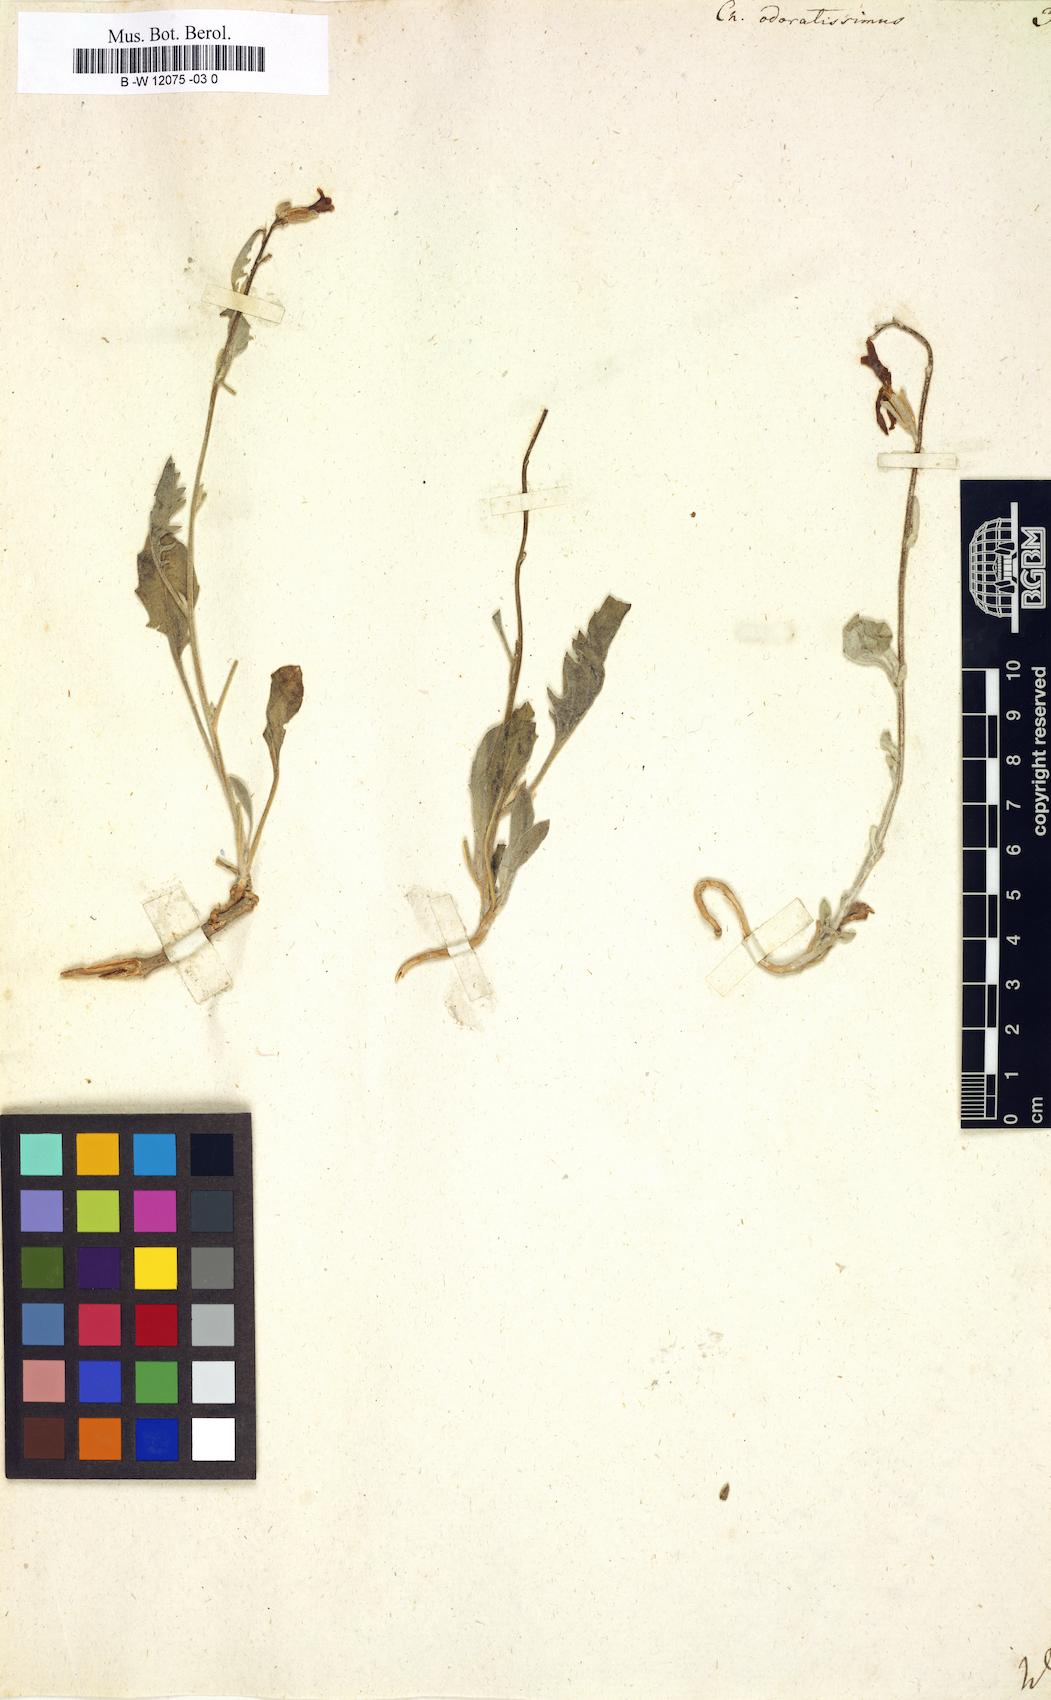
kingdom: Plantae
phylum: Tracheophyta
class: Magnoliopsida
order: Brassicales
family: Brassicaceae
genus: Matthiola
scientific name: Matthiola odoratissima
